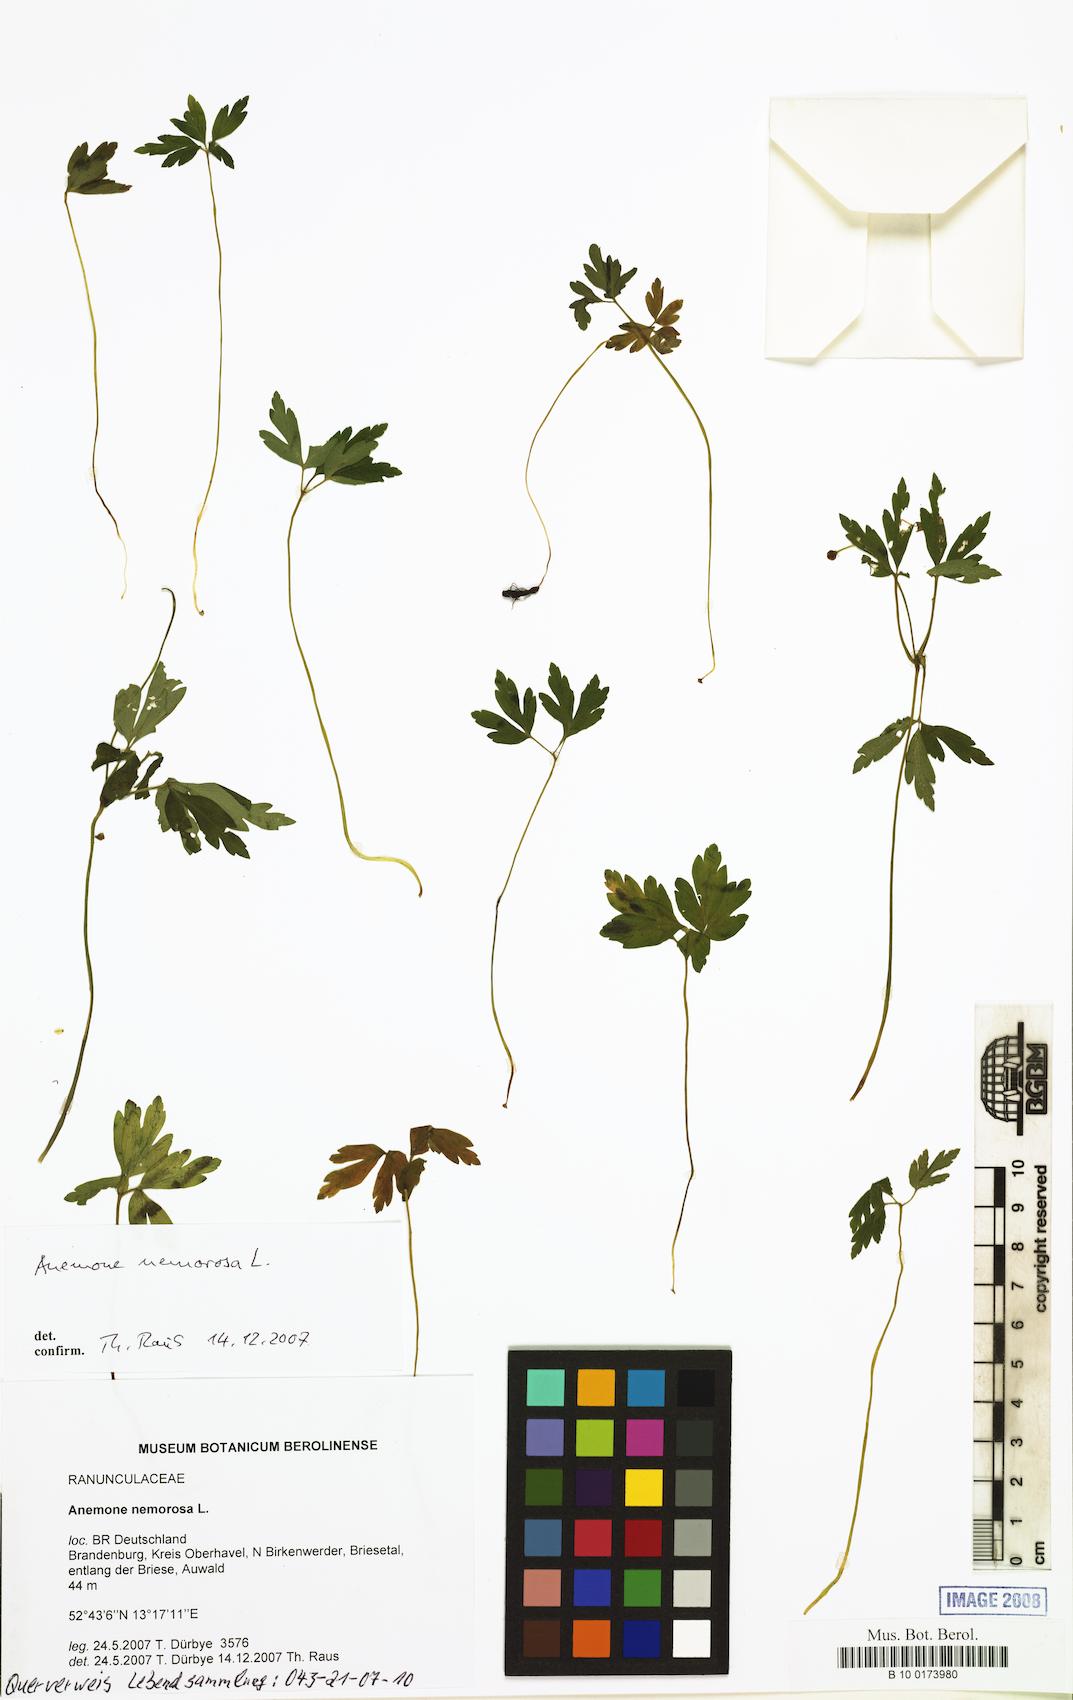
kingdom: Plantae
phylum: Tracheophyta
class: Magnoliopsida
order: Ranunculales
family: Ranunculaceae
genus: Anemone
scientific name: Anemone nemorosa
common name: Wood anemone
